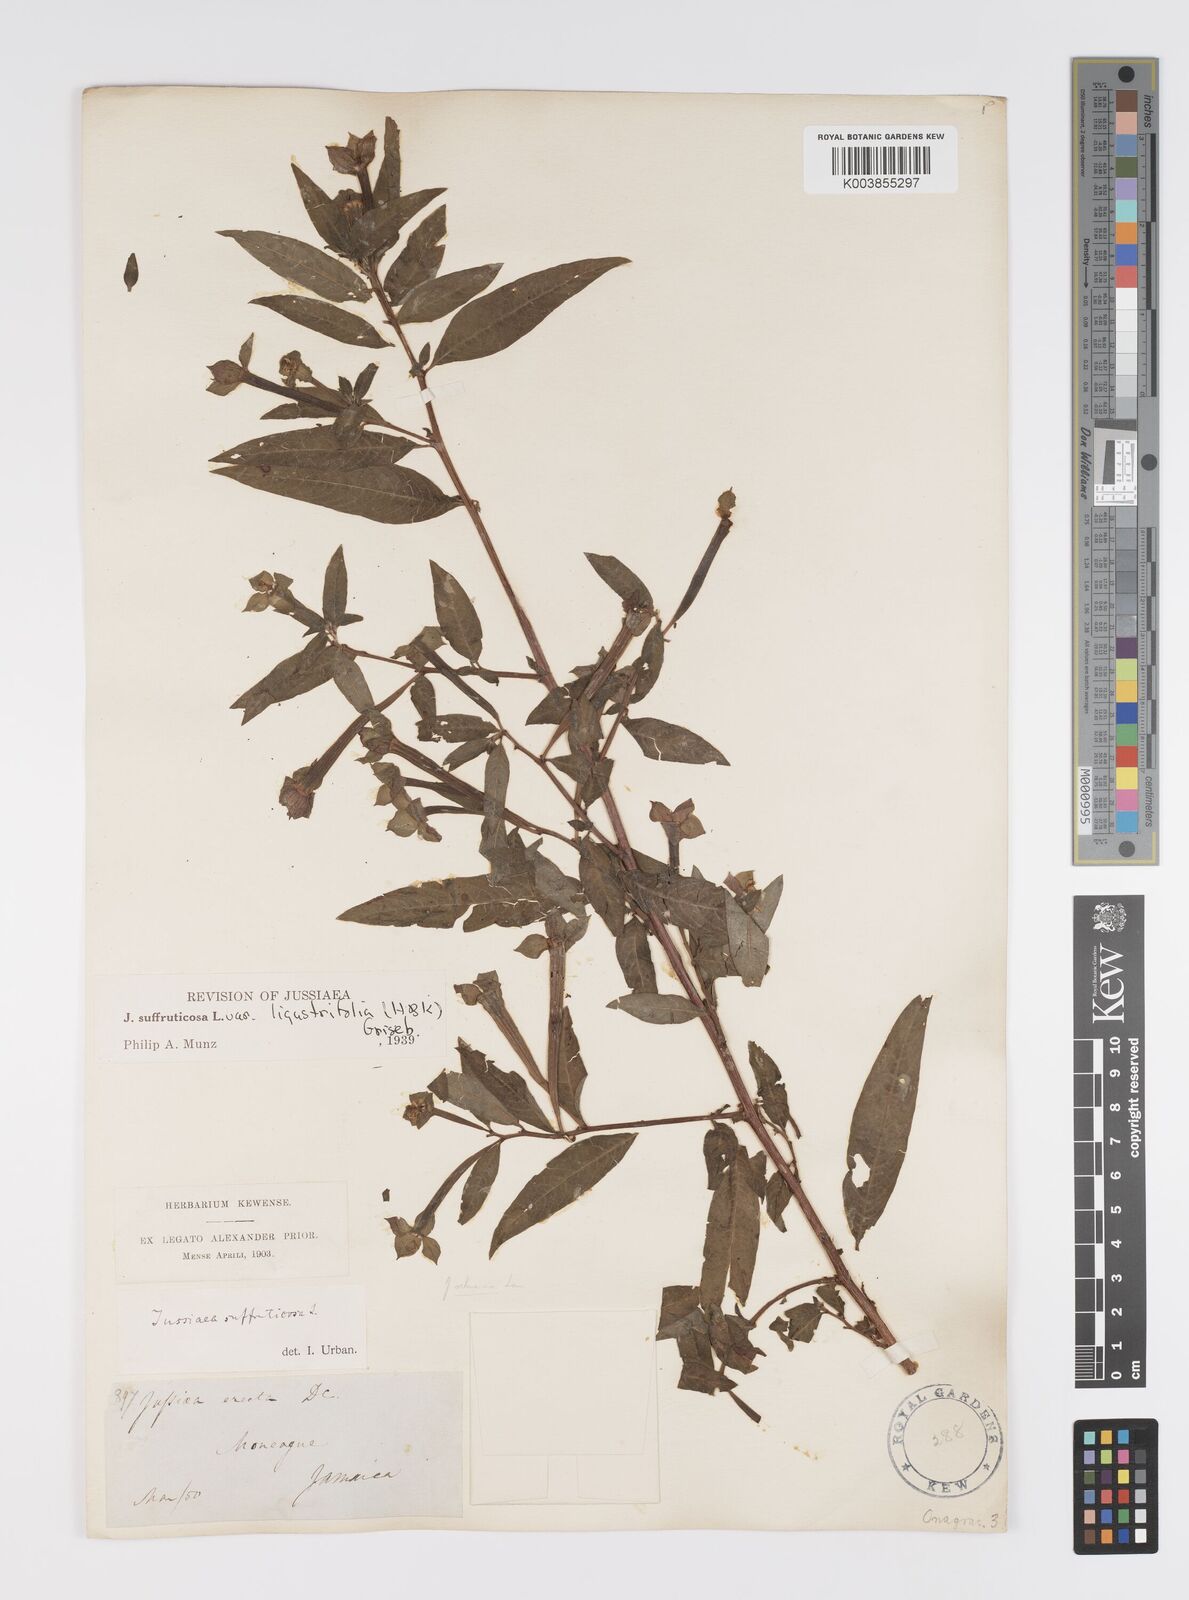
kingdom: Plantae
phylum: Tracheophyta
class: Magnoliopsida
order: Myrtales
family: Onagraceae
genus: Ludwigia
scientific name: Ludwigia octovalvis
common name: Water-primrose
